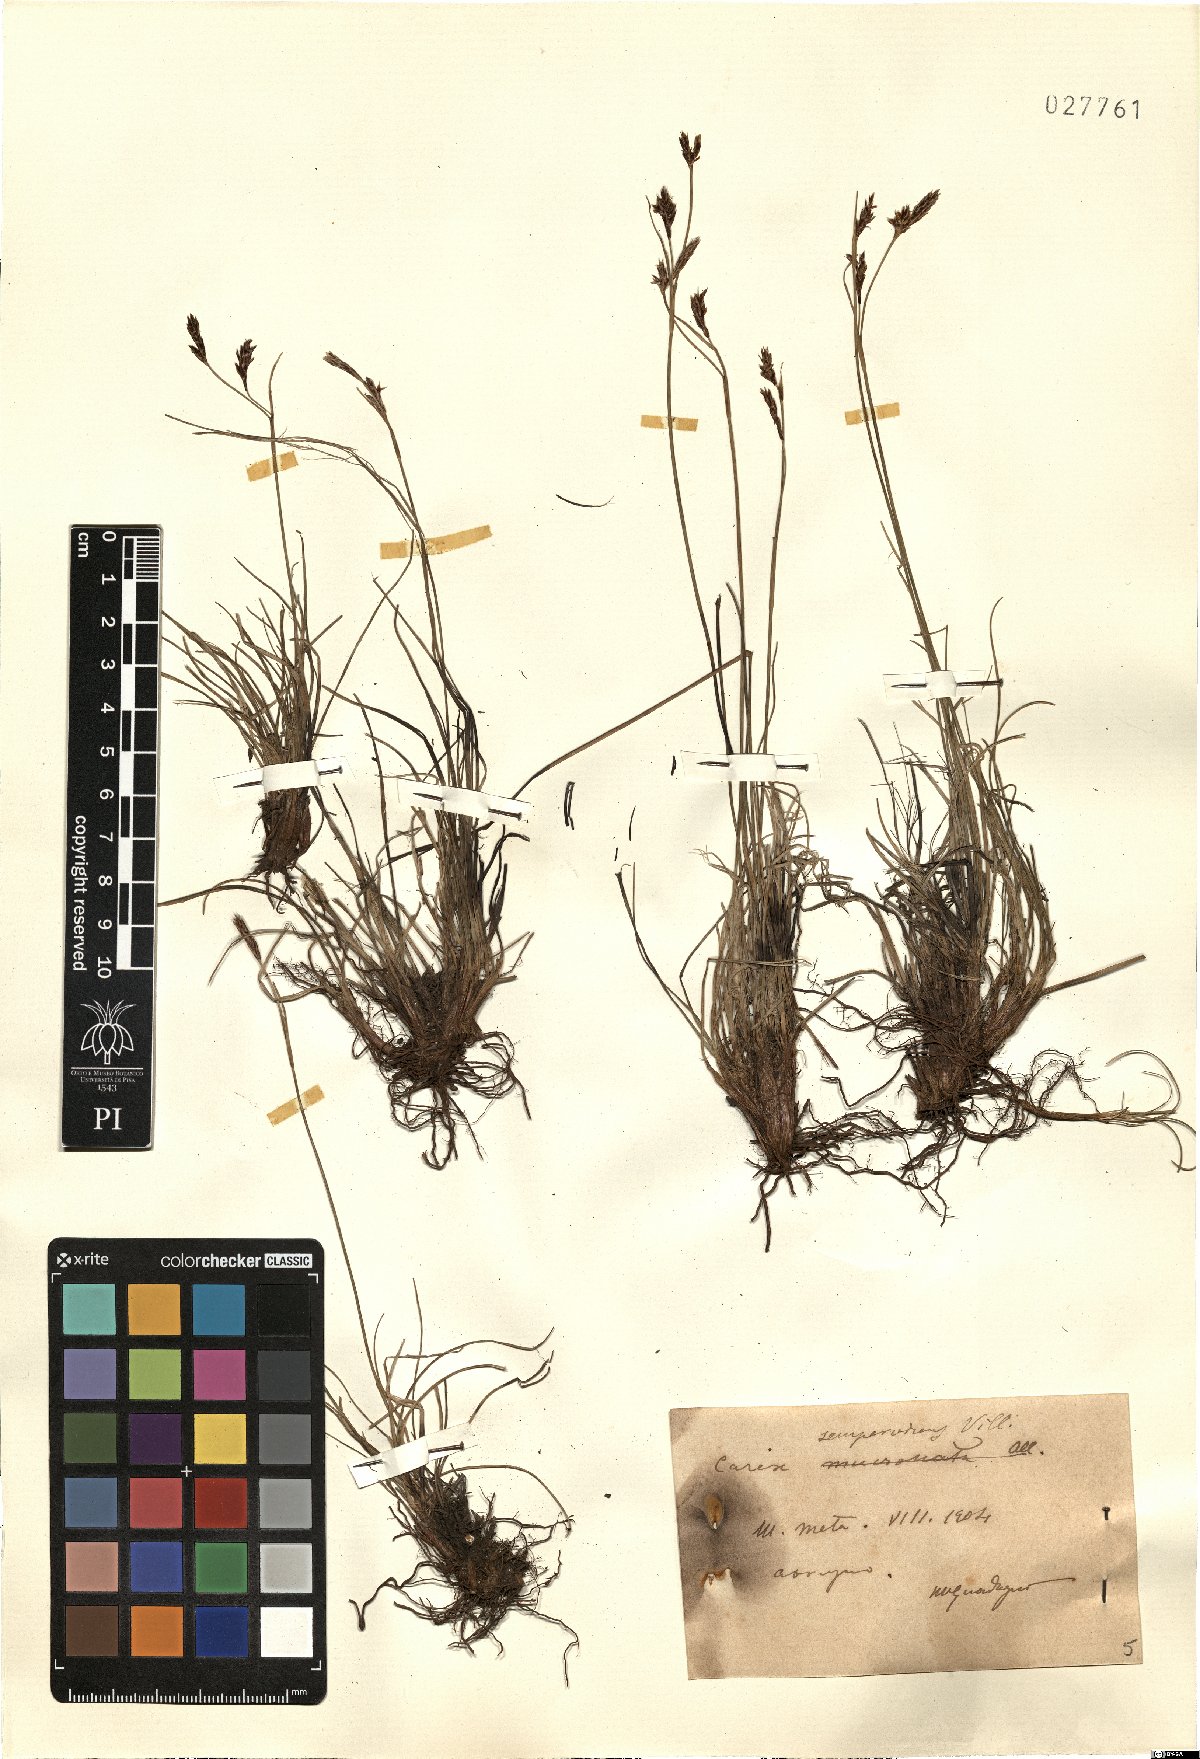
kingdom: Plantae
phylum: Tracheophyta
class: Liliopsida
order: Poales
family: Cyperaceae
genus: Carex
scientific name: Carex sempervirens
